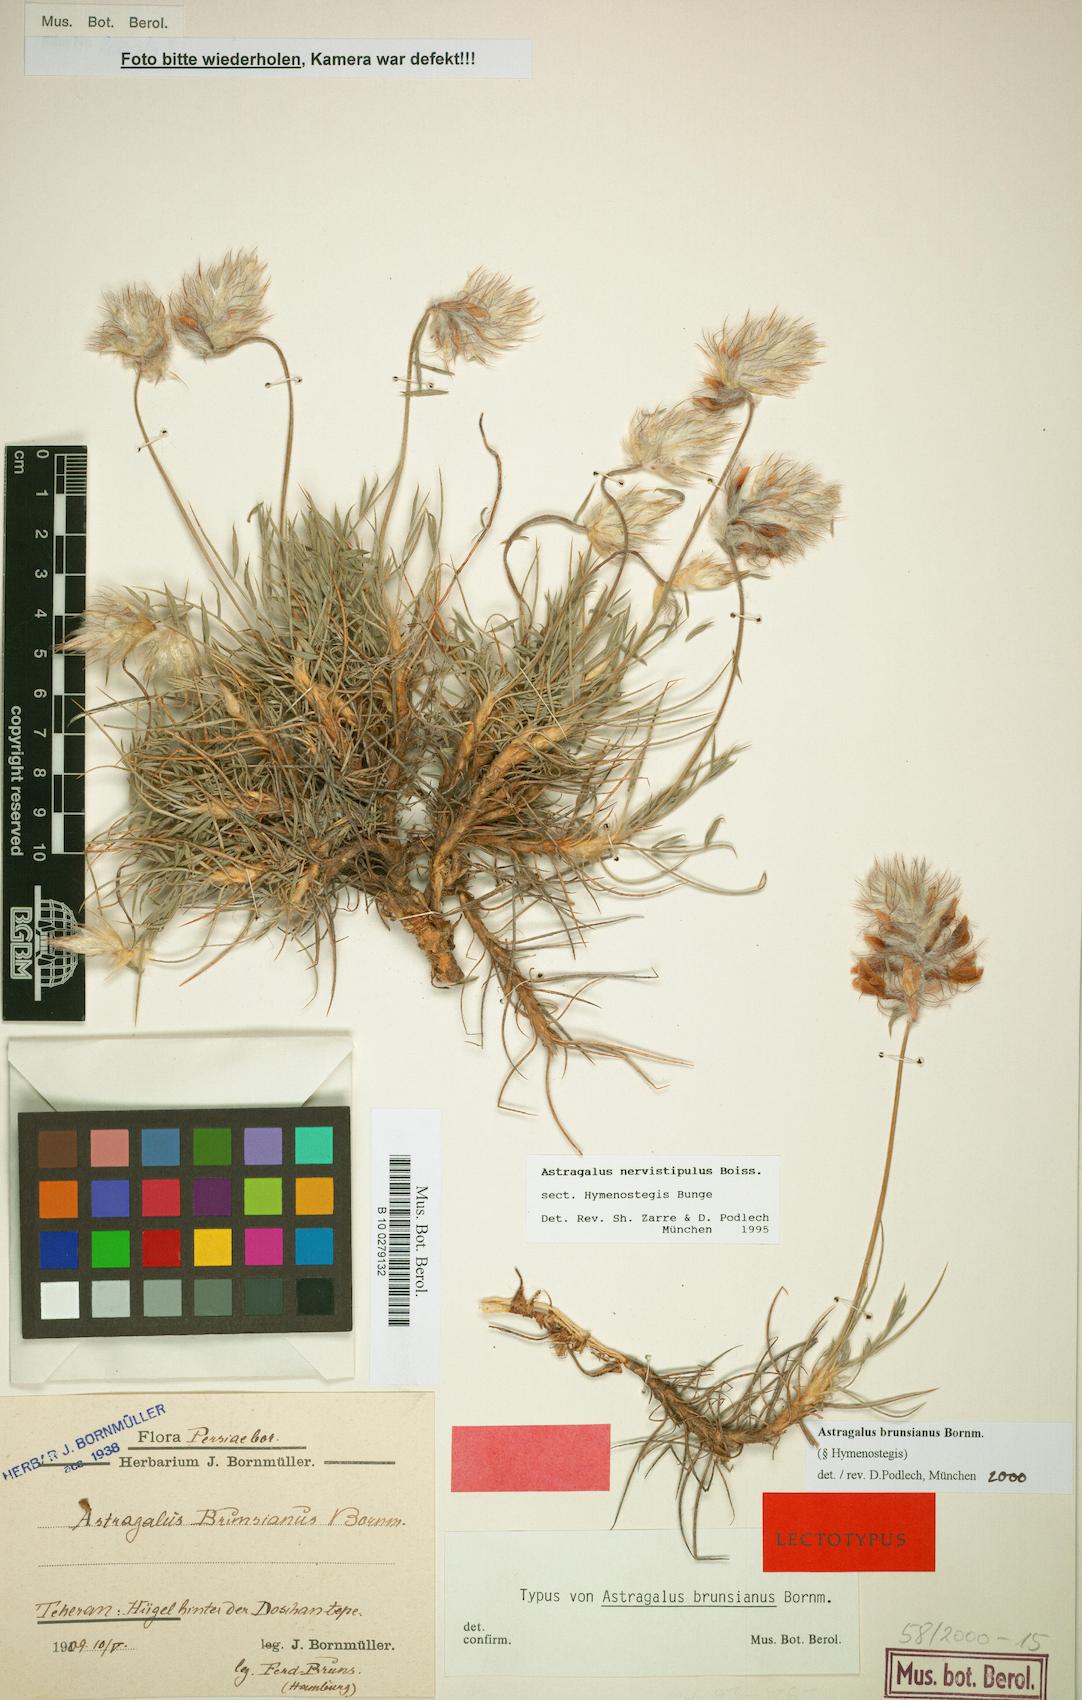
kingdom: Plantae
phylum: Tracheophyta
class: Magnoliopsida
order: Fabales
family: Fabaceae
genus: Astragalus
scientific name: Astragalus brunsianus
